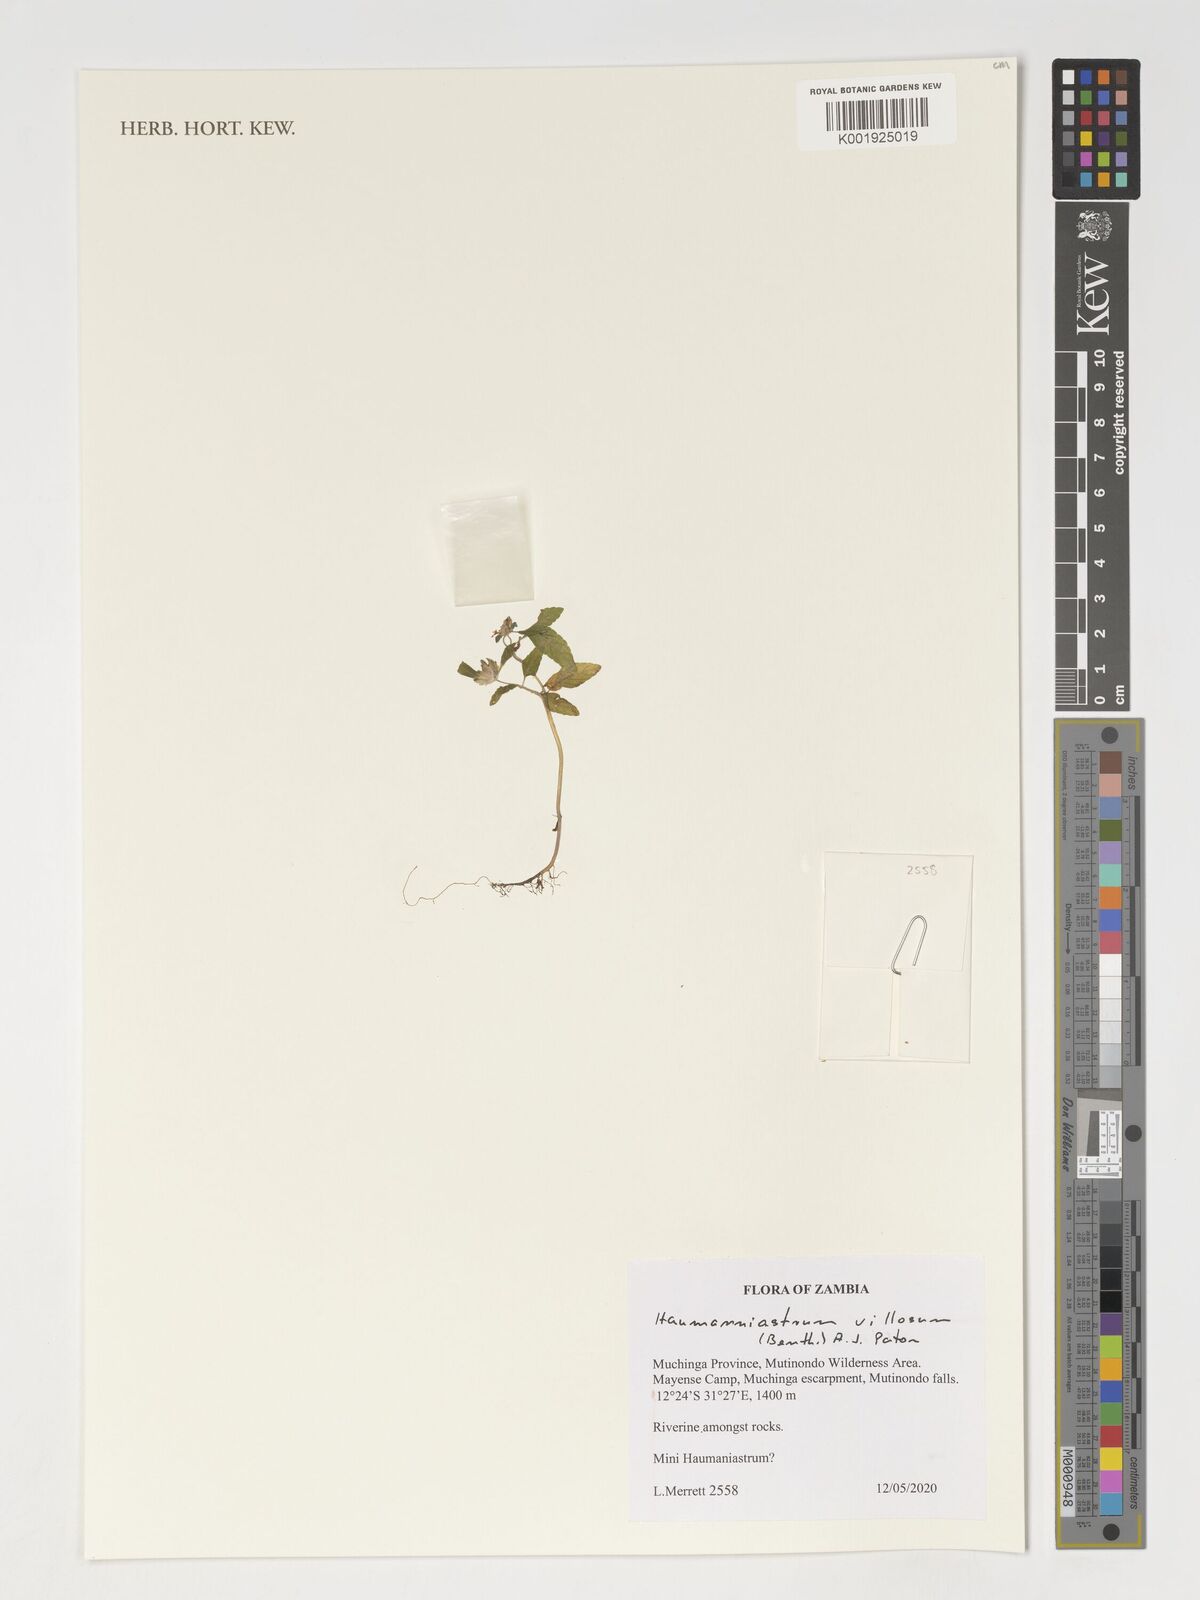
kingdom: Plantae
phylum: Tracheophyta
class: Magnoliopsida
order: Lamiales
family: Lamiaceae
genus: Haumaniastrum
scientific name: Haumaniastrum villosum
